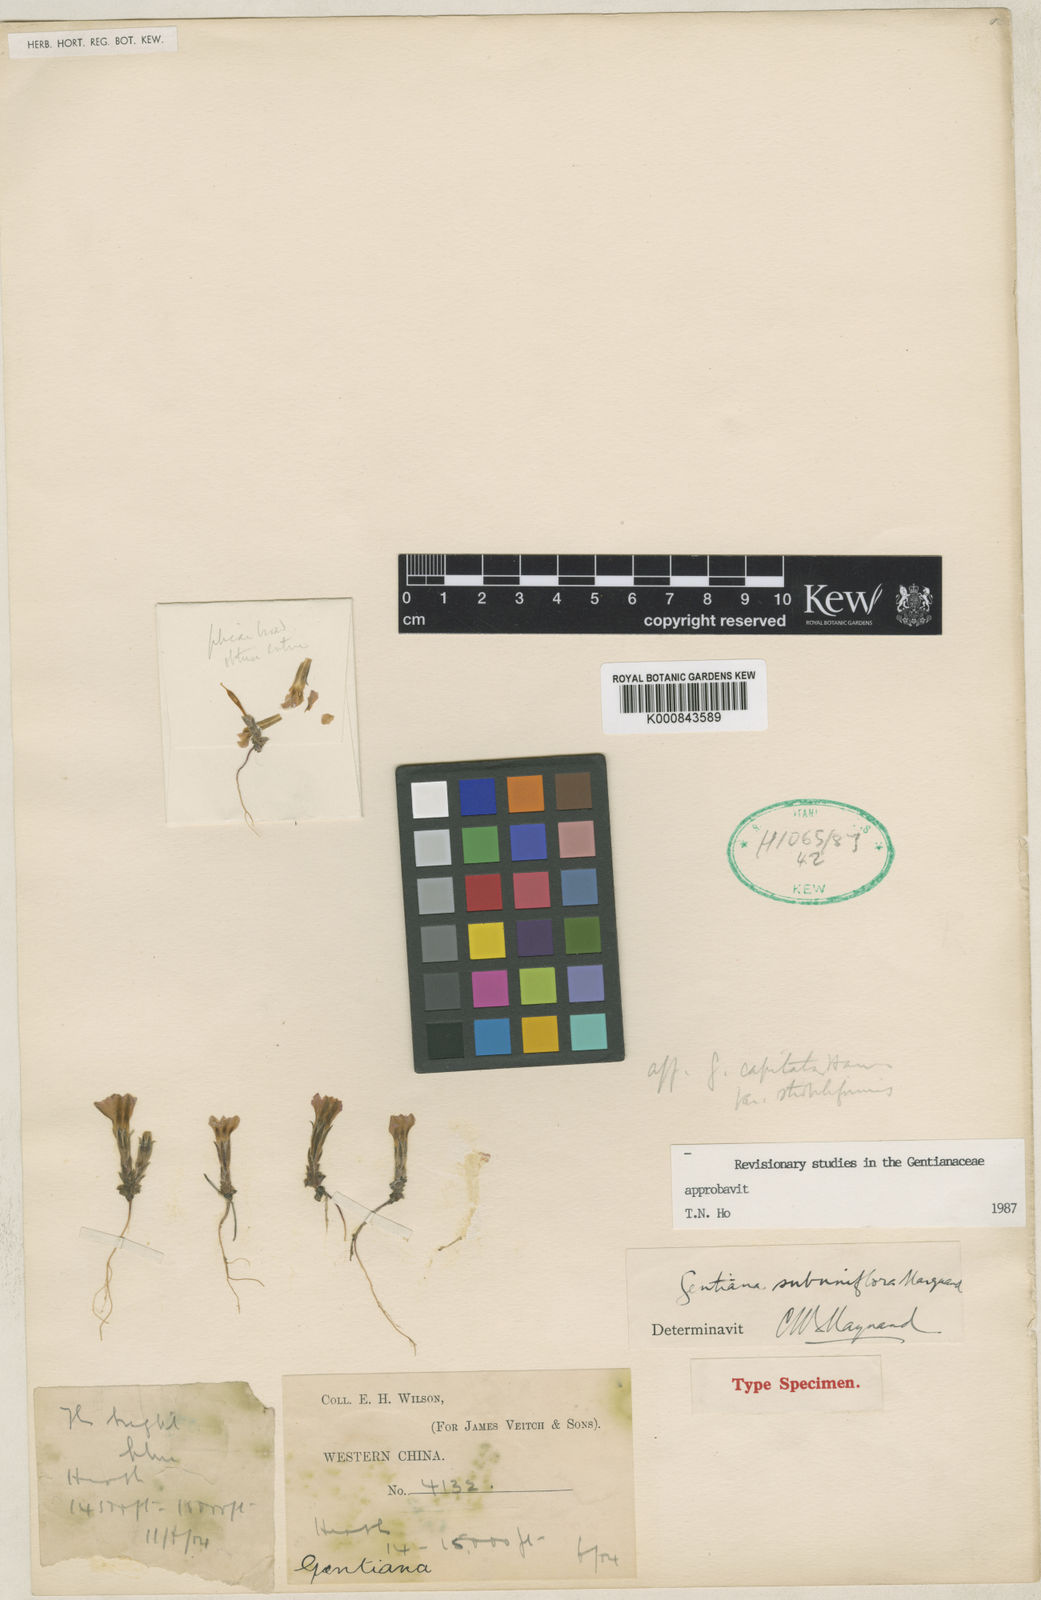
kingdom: Plantae
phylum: Tracheophyta
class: Magnoliopsida
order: Gentianales
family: Gentianaceae
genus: Gentiana
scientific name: Gentiana chungtienensis
